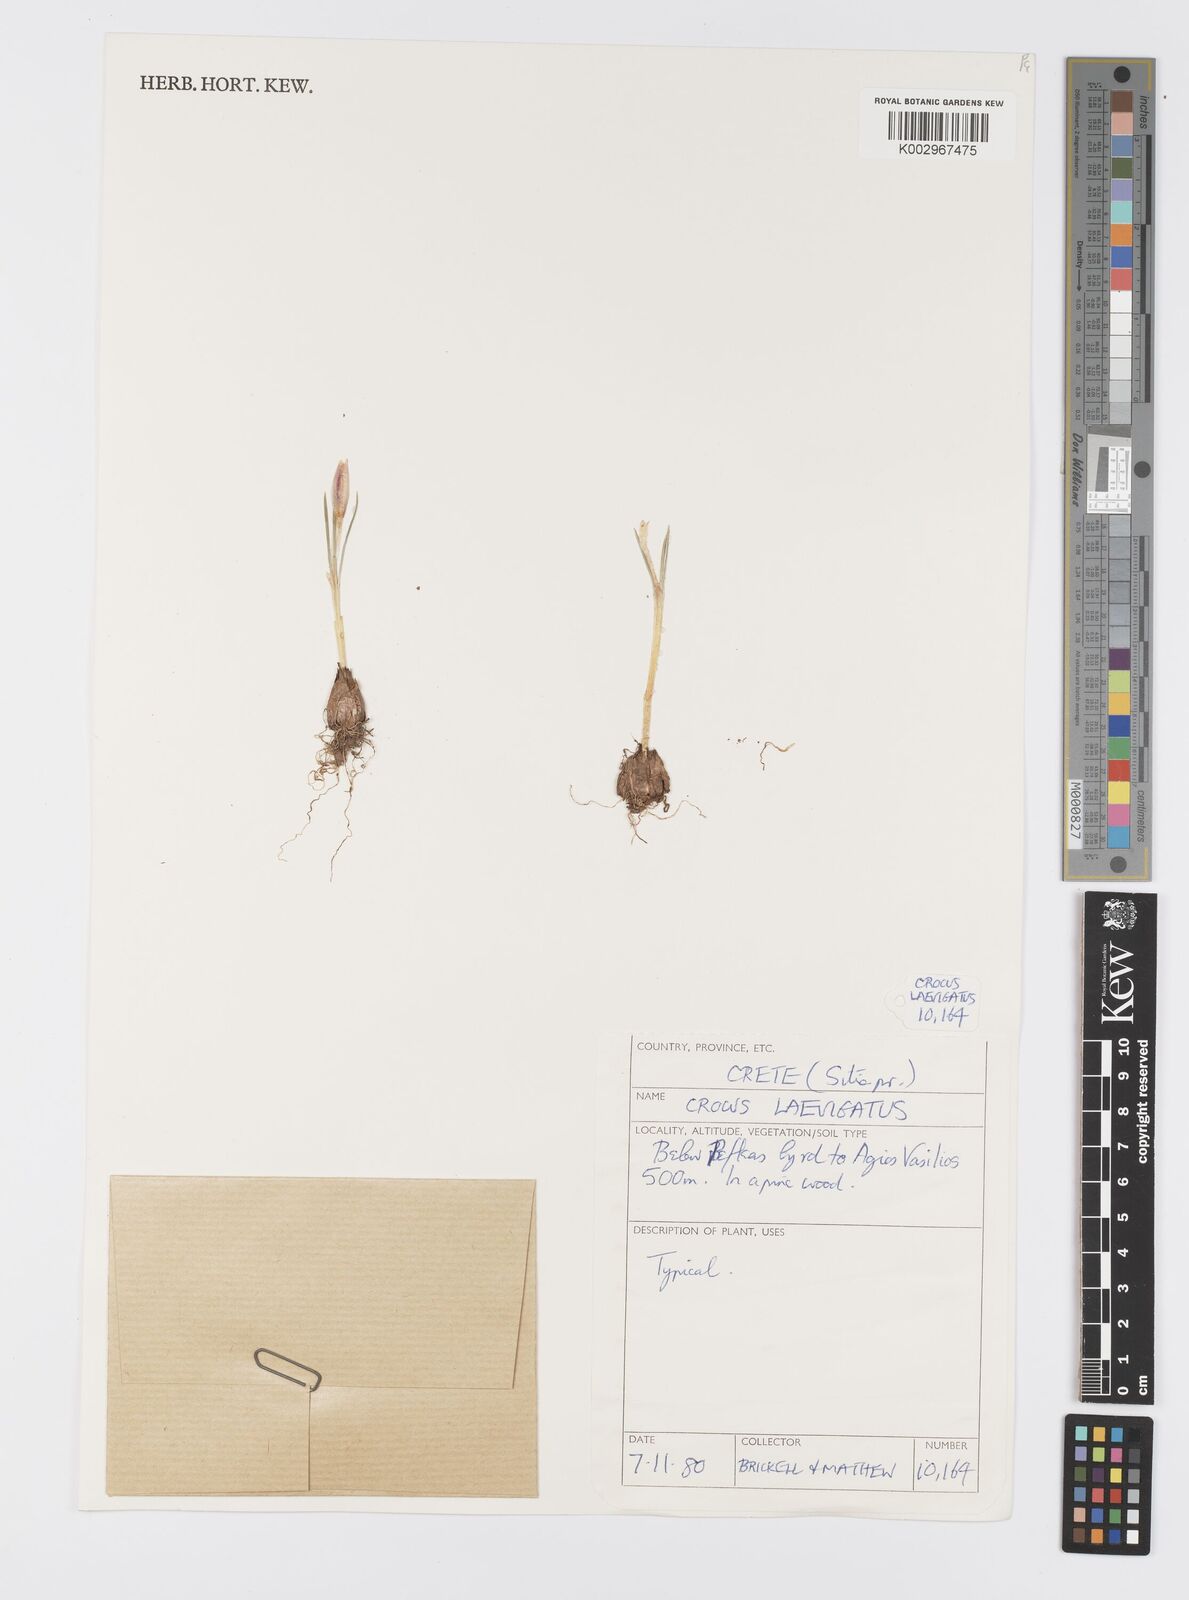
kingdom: Plantae
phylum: Tracheophyta
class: Liliopsida
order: Asparagales
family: Iridaceae
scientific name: Iridaceae
